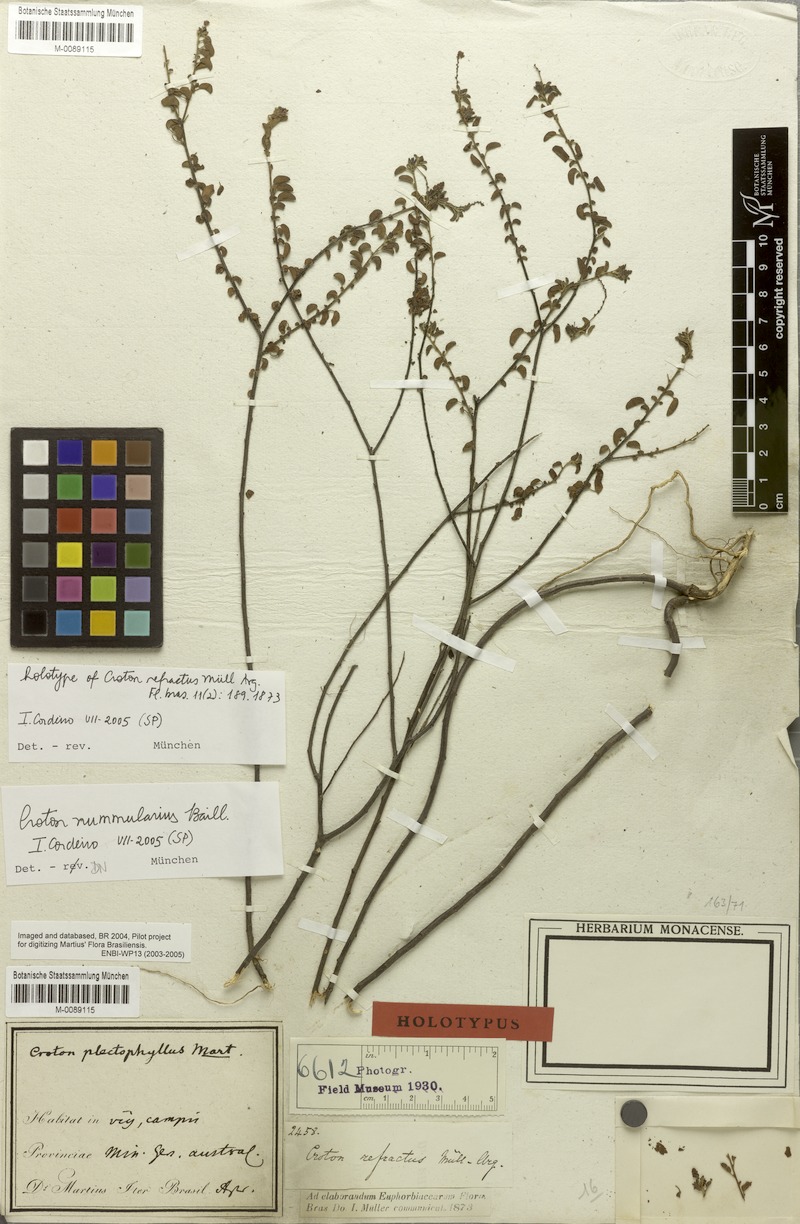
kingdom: Plantae
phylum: Tracheophyta
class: Magnoliopsida
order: Malpighiales
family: Euphorbiaceae
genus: Croton
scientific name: Croton nummularius
